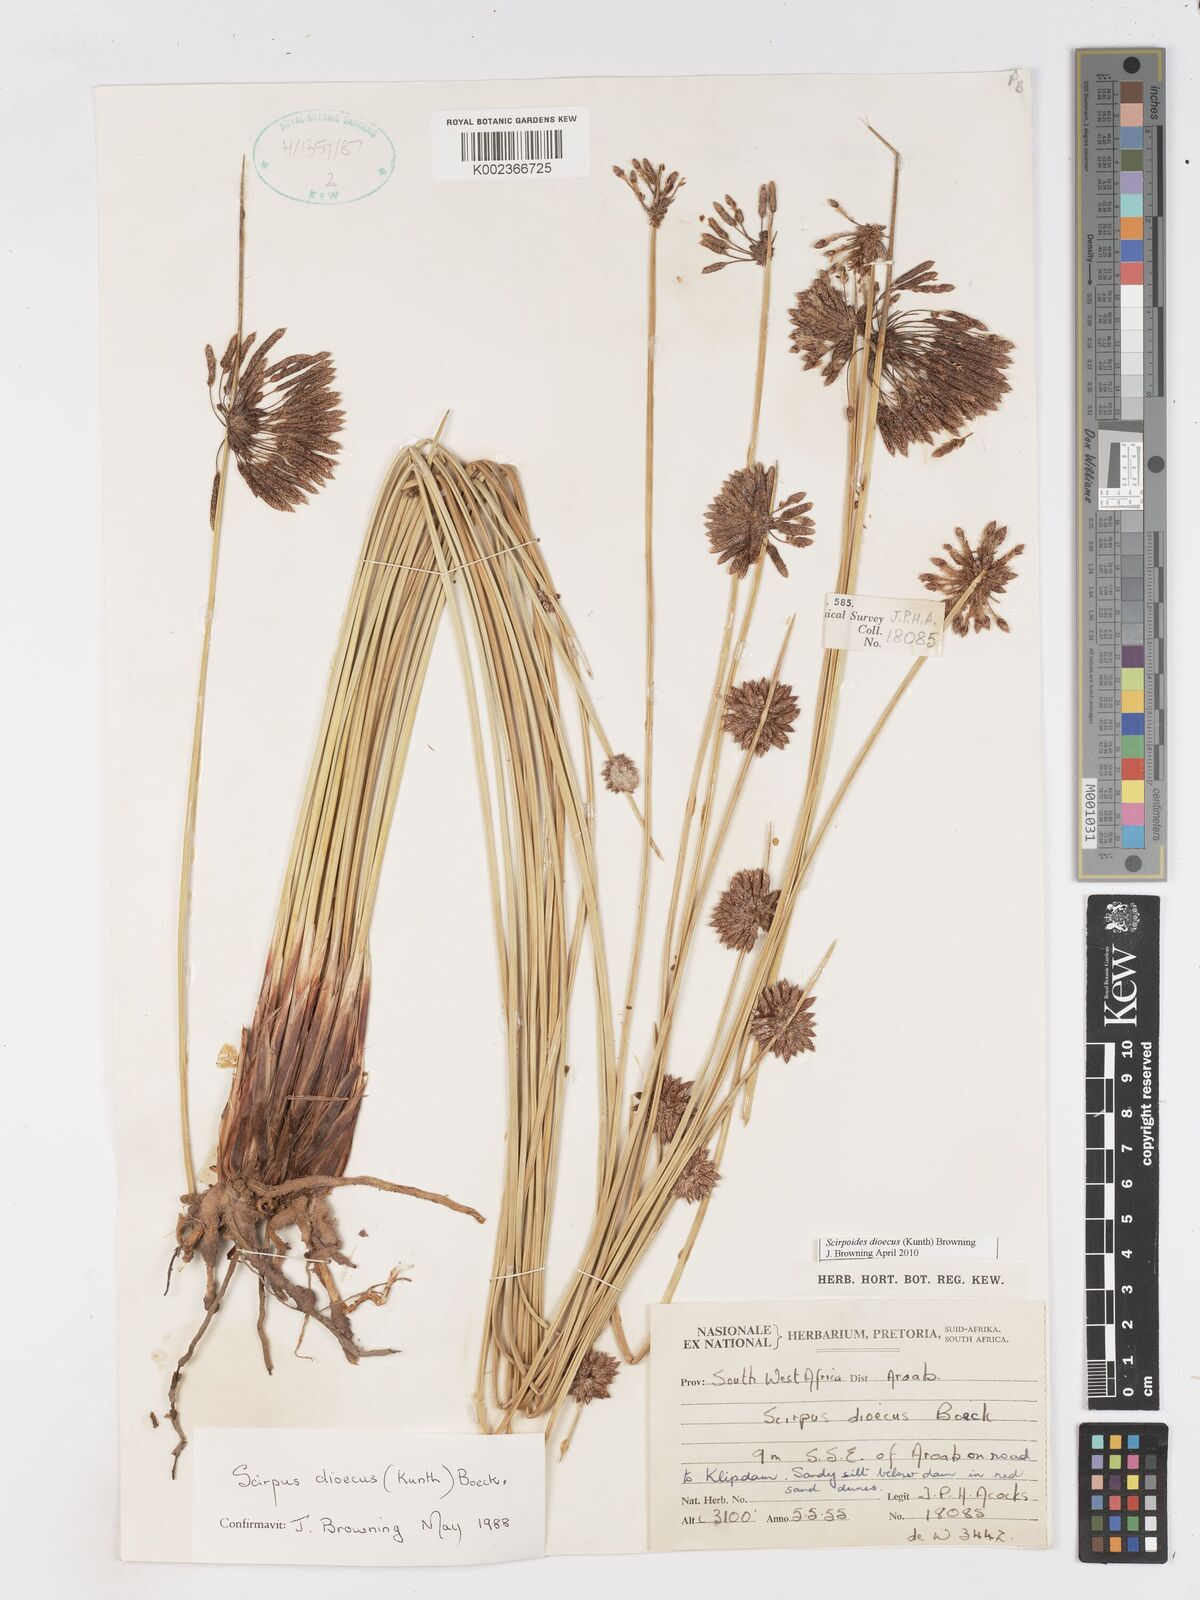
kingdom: Plantae
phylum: Tracheophyta
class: Liliopsida
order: Poales
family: Cyperaceae
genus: Scirpoides
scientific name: Scirpoides
